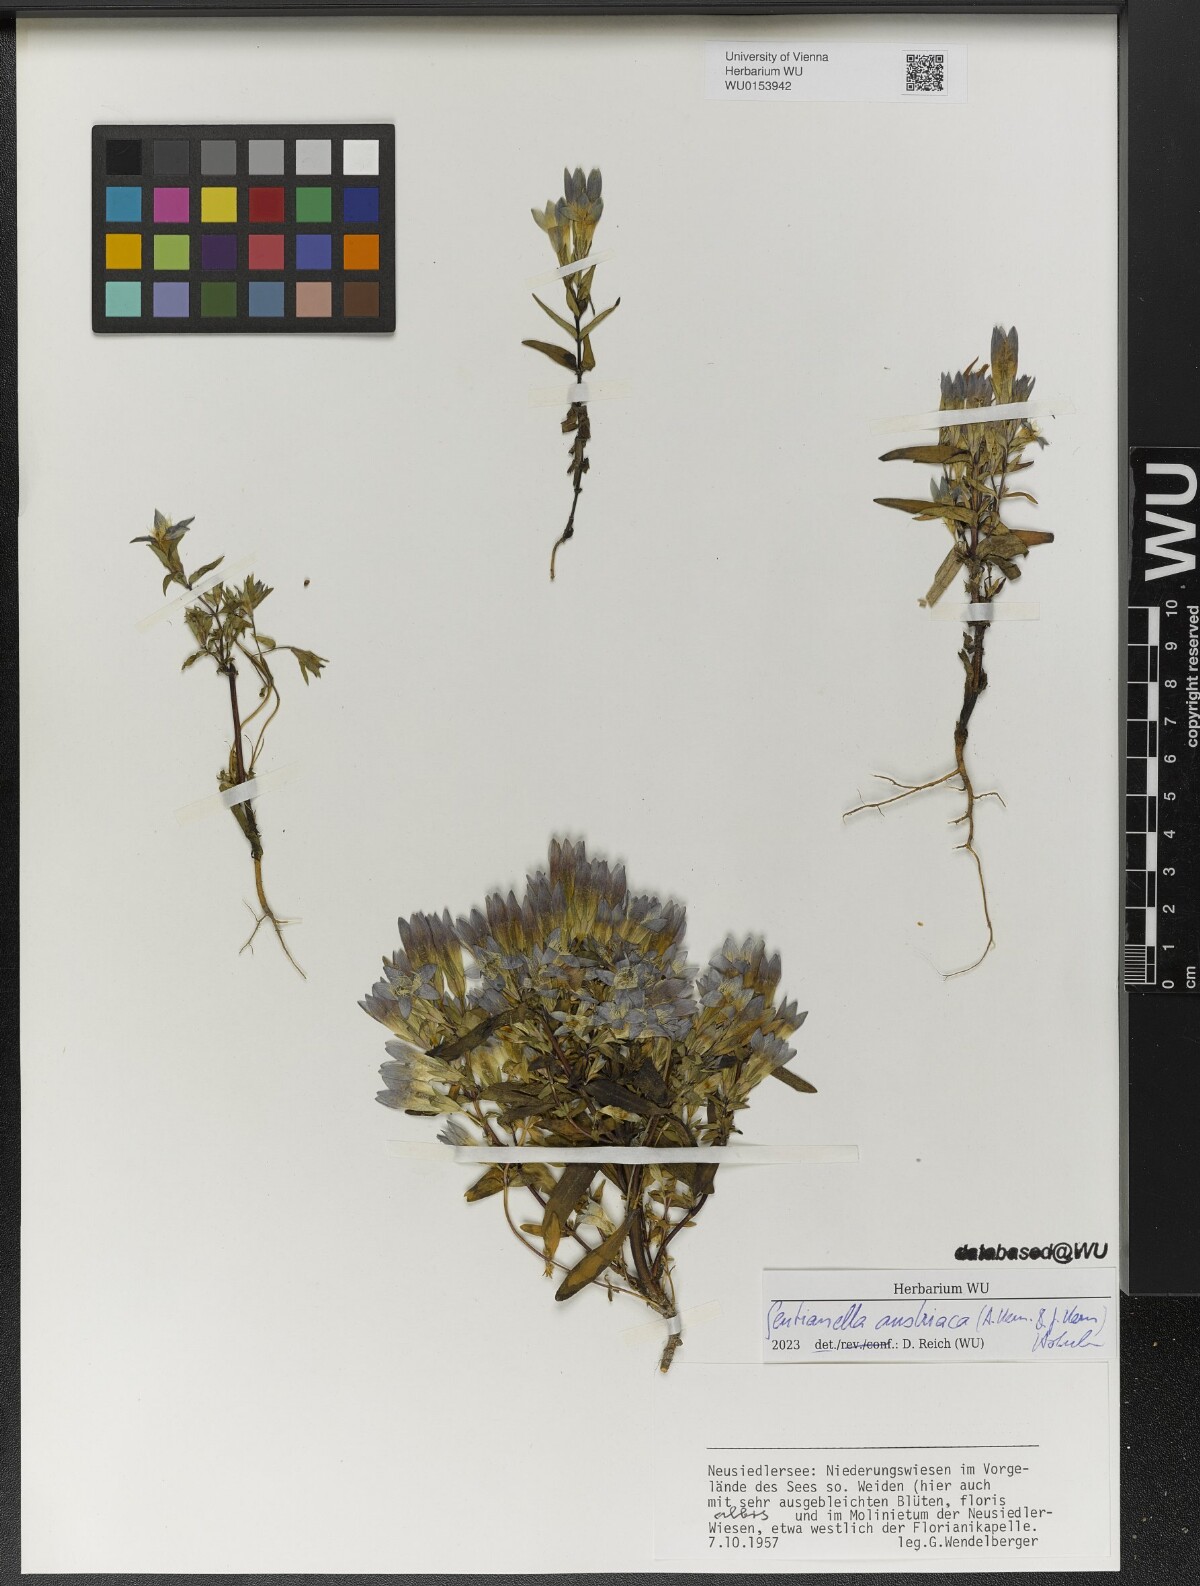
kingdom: Plantae
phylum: Tracheophyta
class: Magnoliopsida
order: Gentianales
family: Gentianaceae
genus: Gentianella
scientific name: Gentianella austriaca
